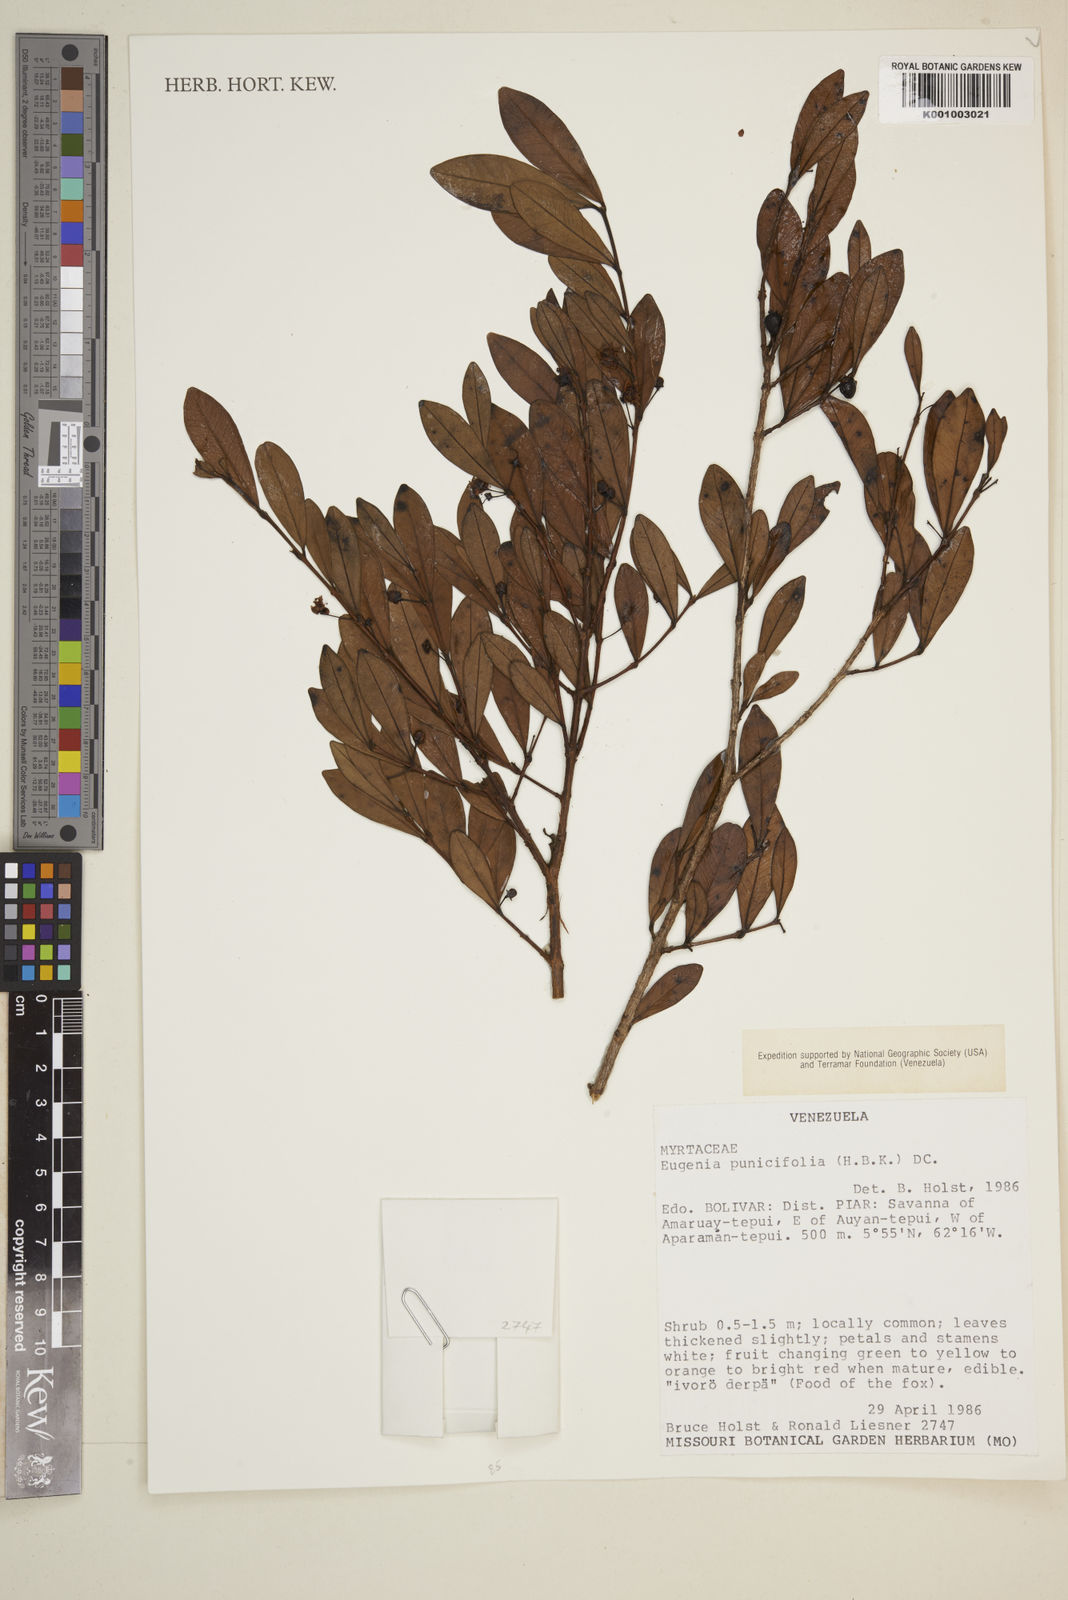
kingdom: Plantae
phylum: Tracheophyta
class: Magnoliopsida
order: Myrtales
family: Myrtaceae
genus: Eugenia
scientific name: Eugenia punicifolia
